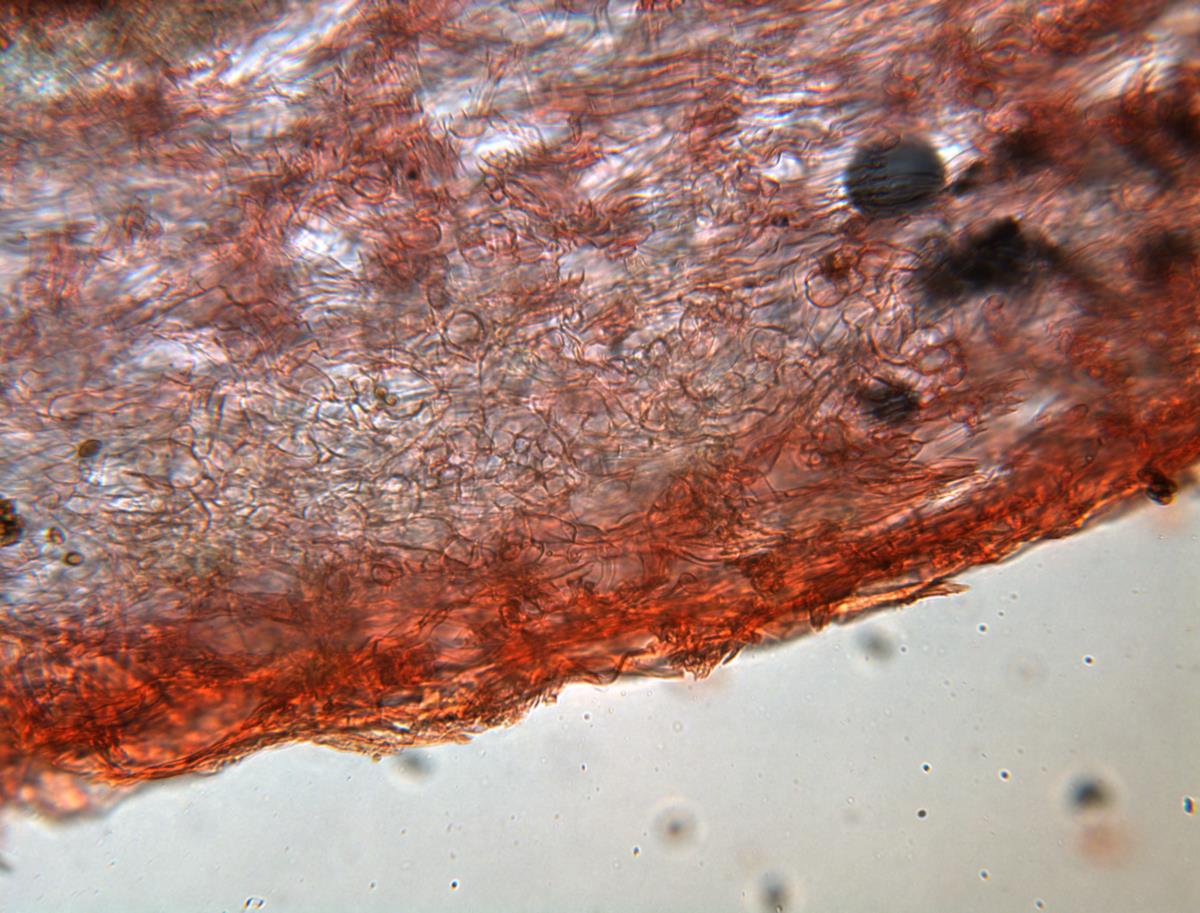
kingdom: Fungi
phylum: Basidiomycota
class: Agaricomycetes
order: Agaricales
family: Cortinariaceae
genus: Cortinarius
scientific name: Cortinarius anisodorus
